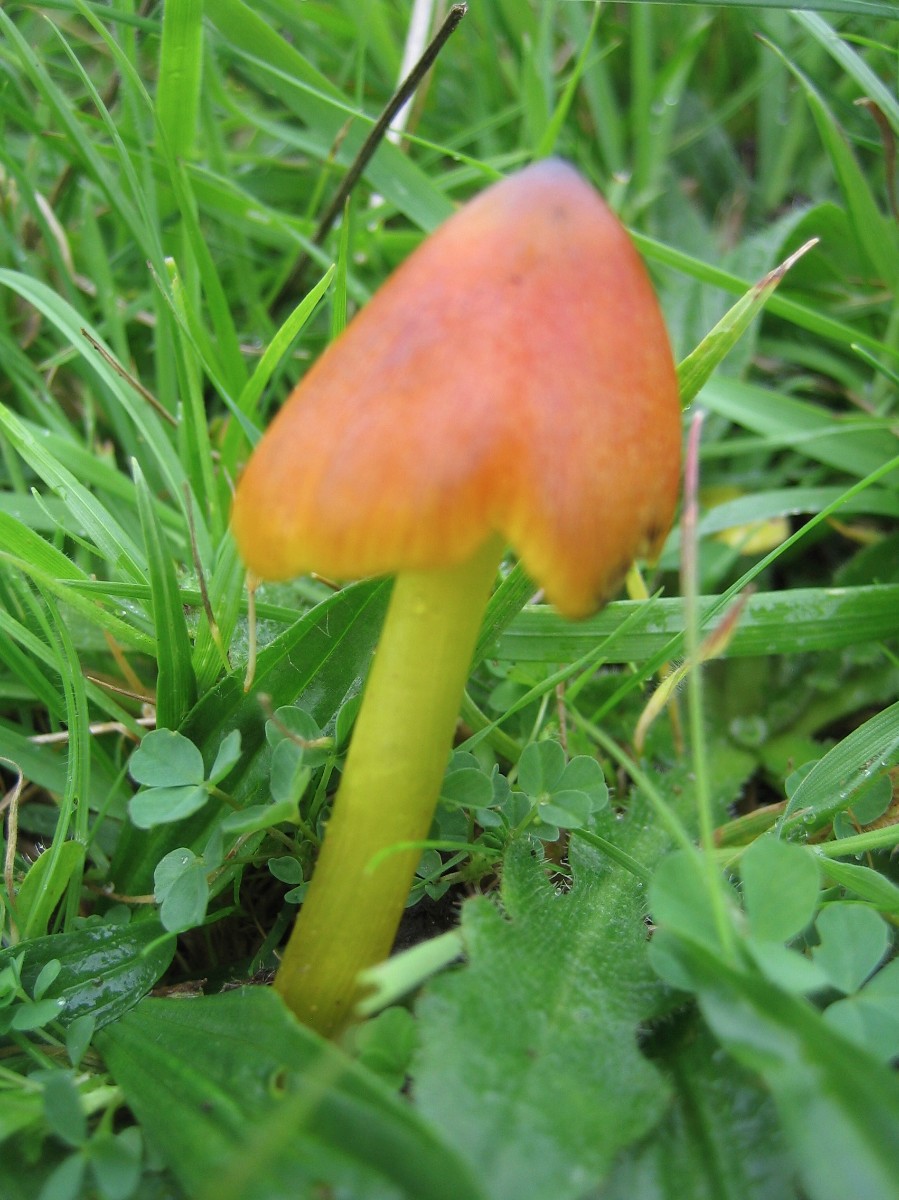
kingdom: Fungi
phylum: Basidiomycota
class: Agaricomycetes
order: Agaricales
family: Hygrophoraceae
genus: Hygrocybe
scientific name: Hygrocybe conica
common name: kegle-vokshat
